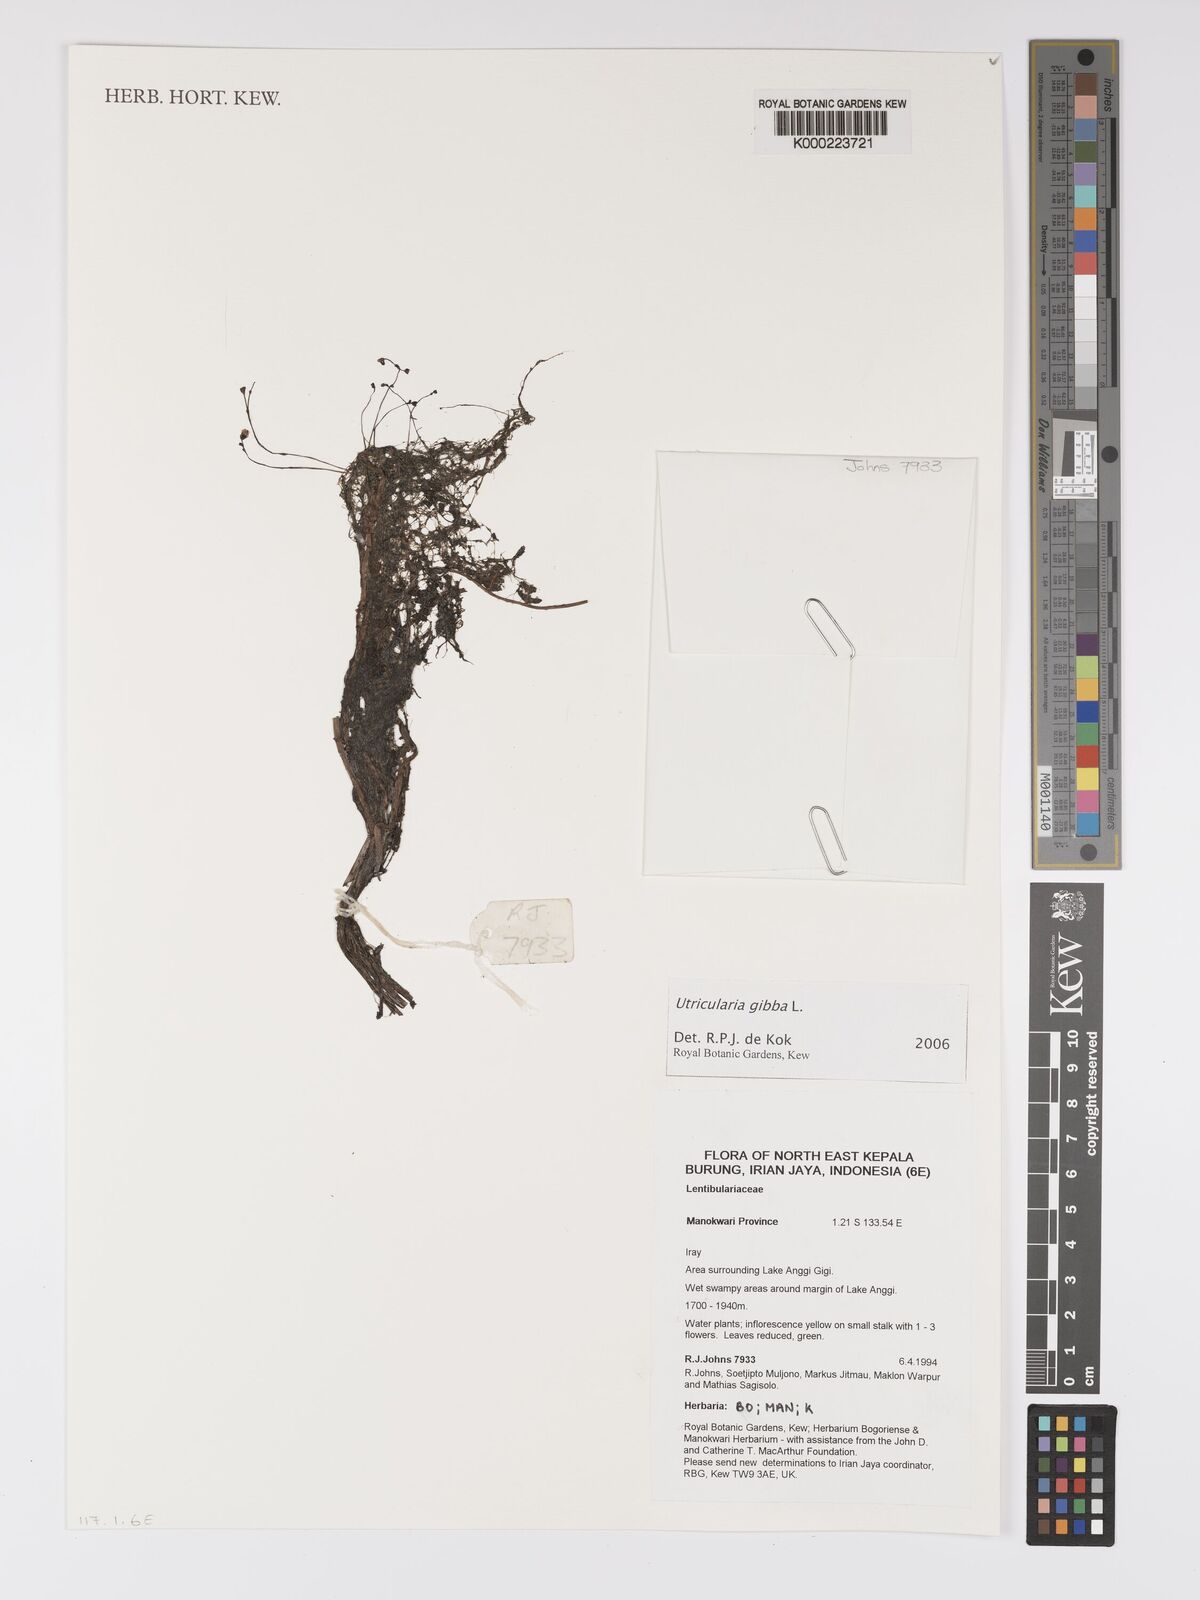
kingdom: Plantae
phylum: Tracheophyta
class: Magnoliopsida
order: Lamiales
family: Lentibulariaceae
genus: Utricularia
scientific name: Utricularia gibba
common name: Humped bladderwort
